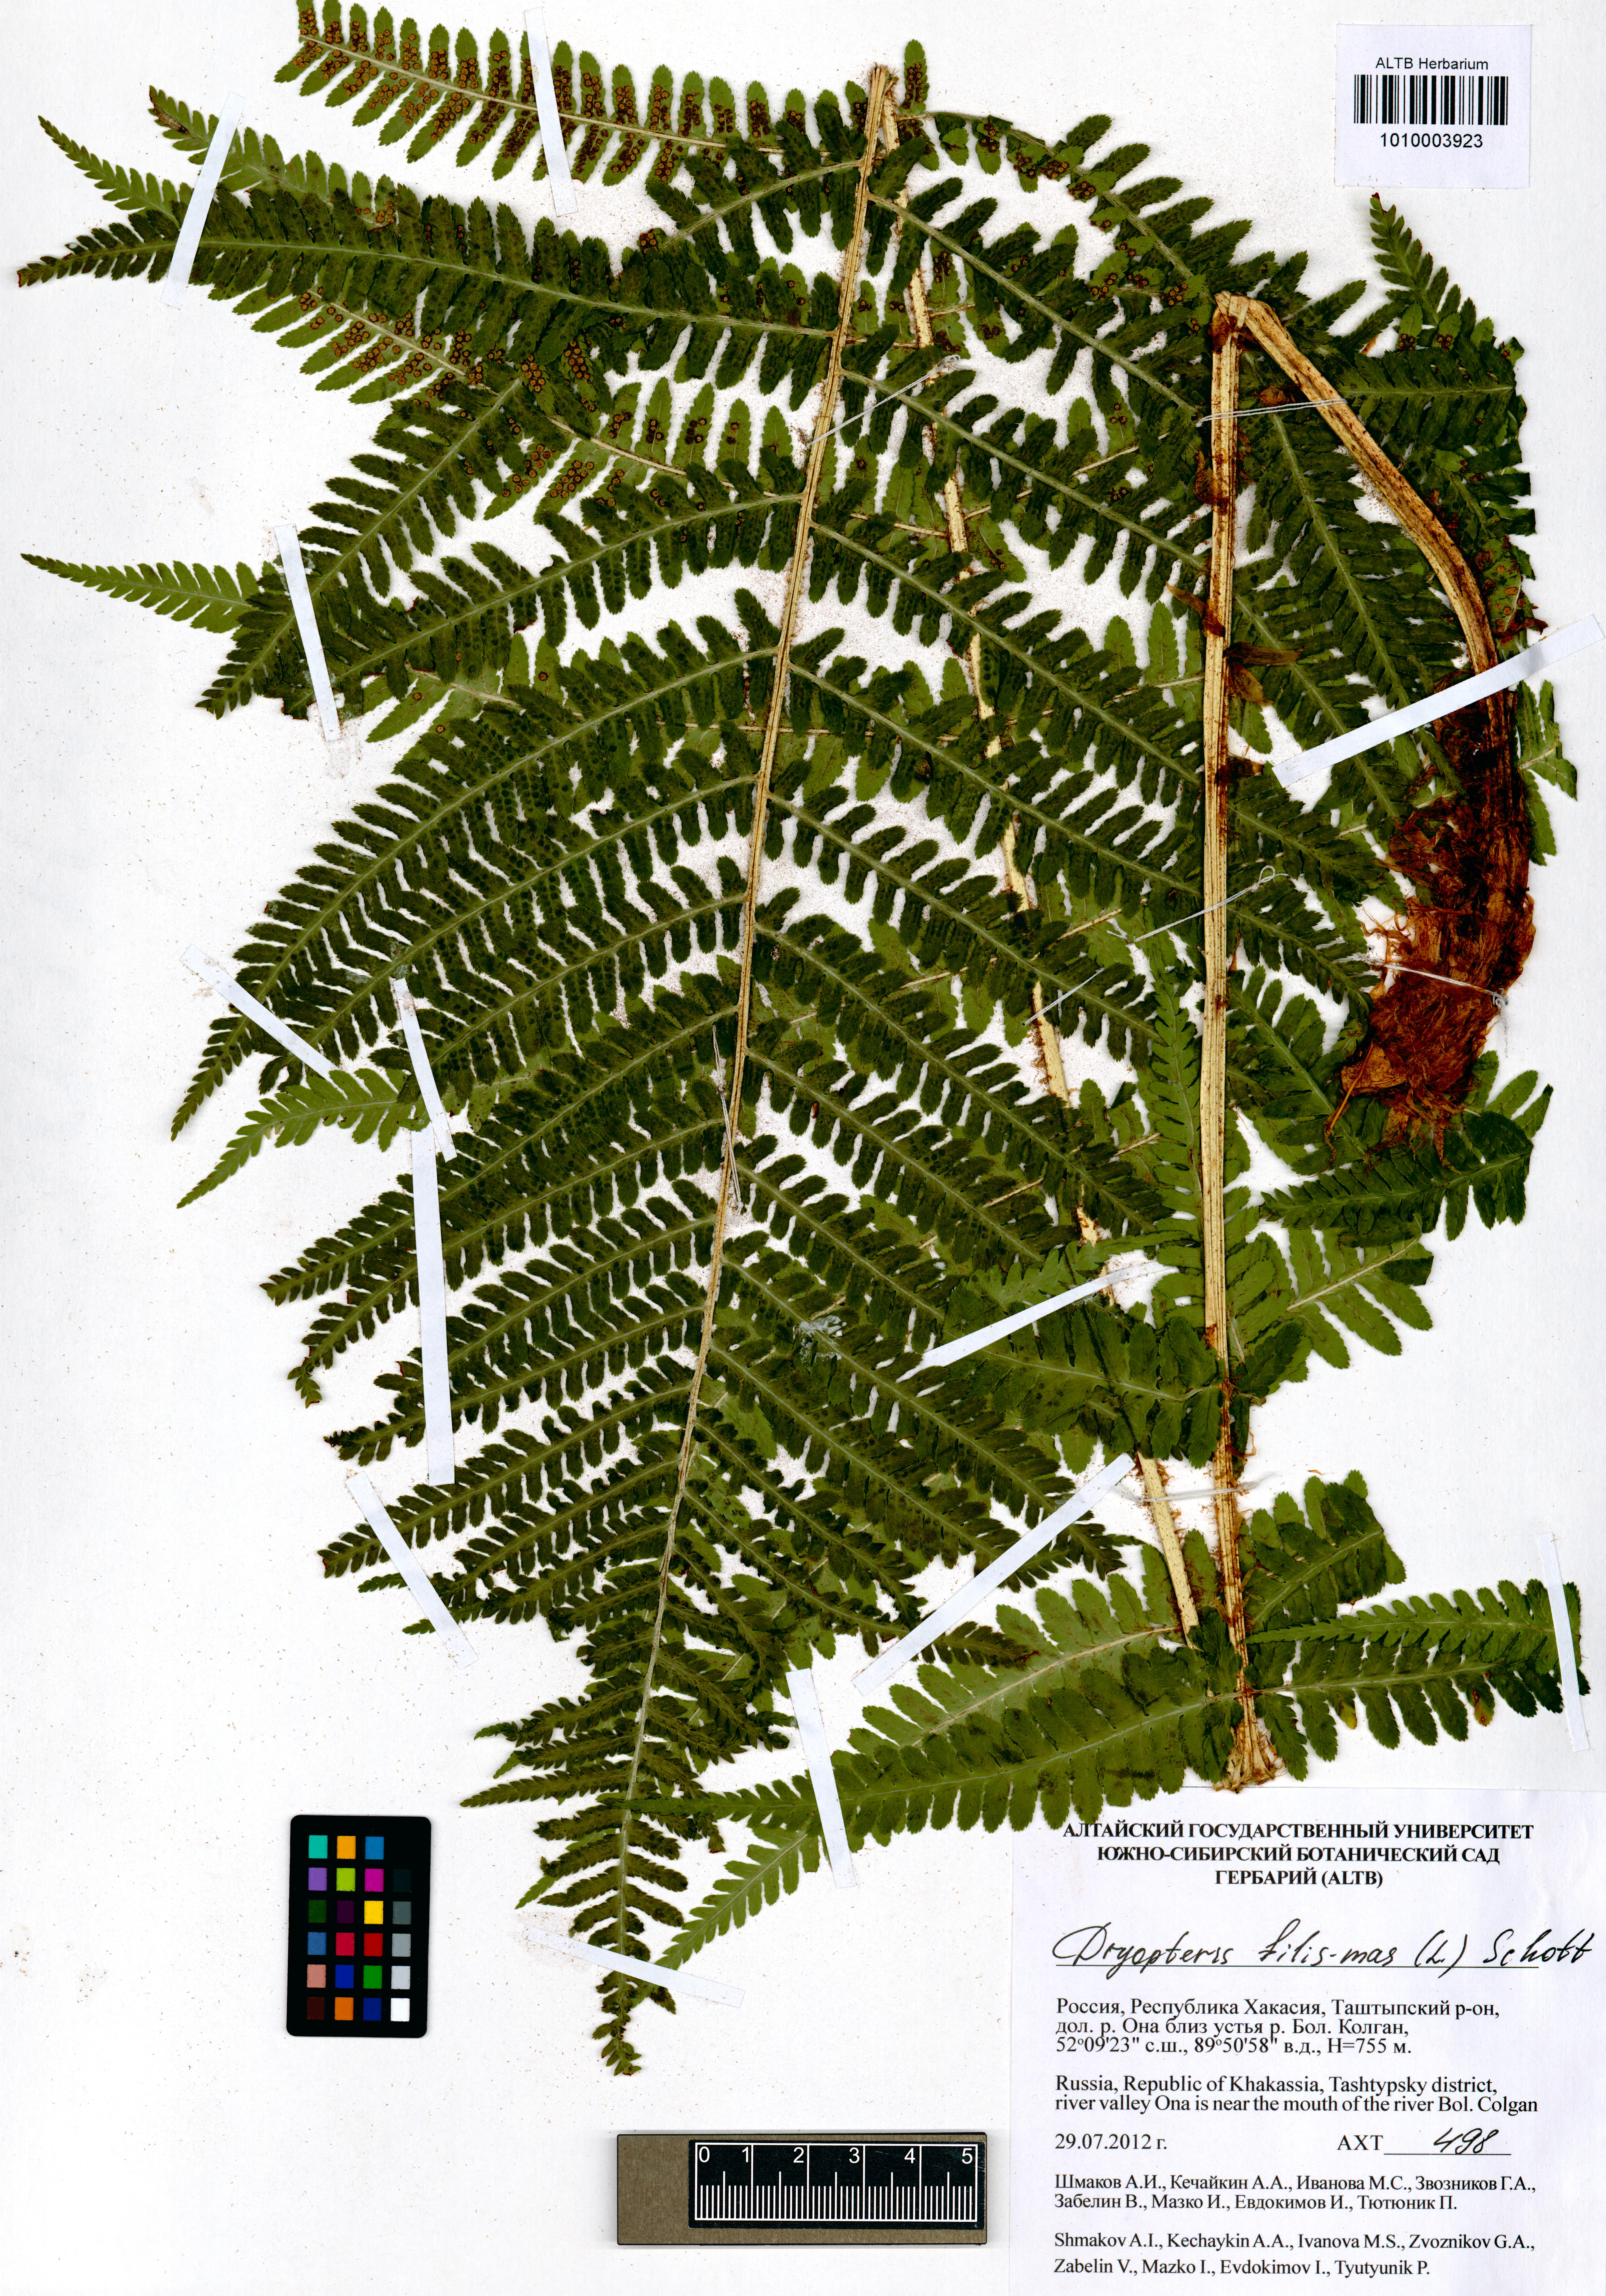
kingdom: Plantae
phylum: Tracheophyta
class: Polypodiopsida
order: Polypodiales
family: Dryopteridaceae
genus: Dryopteris
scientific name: Dryopteris filix-mas
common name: Male fern
